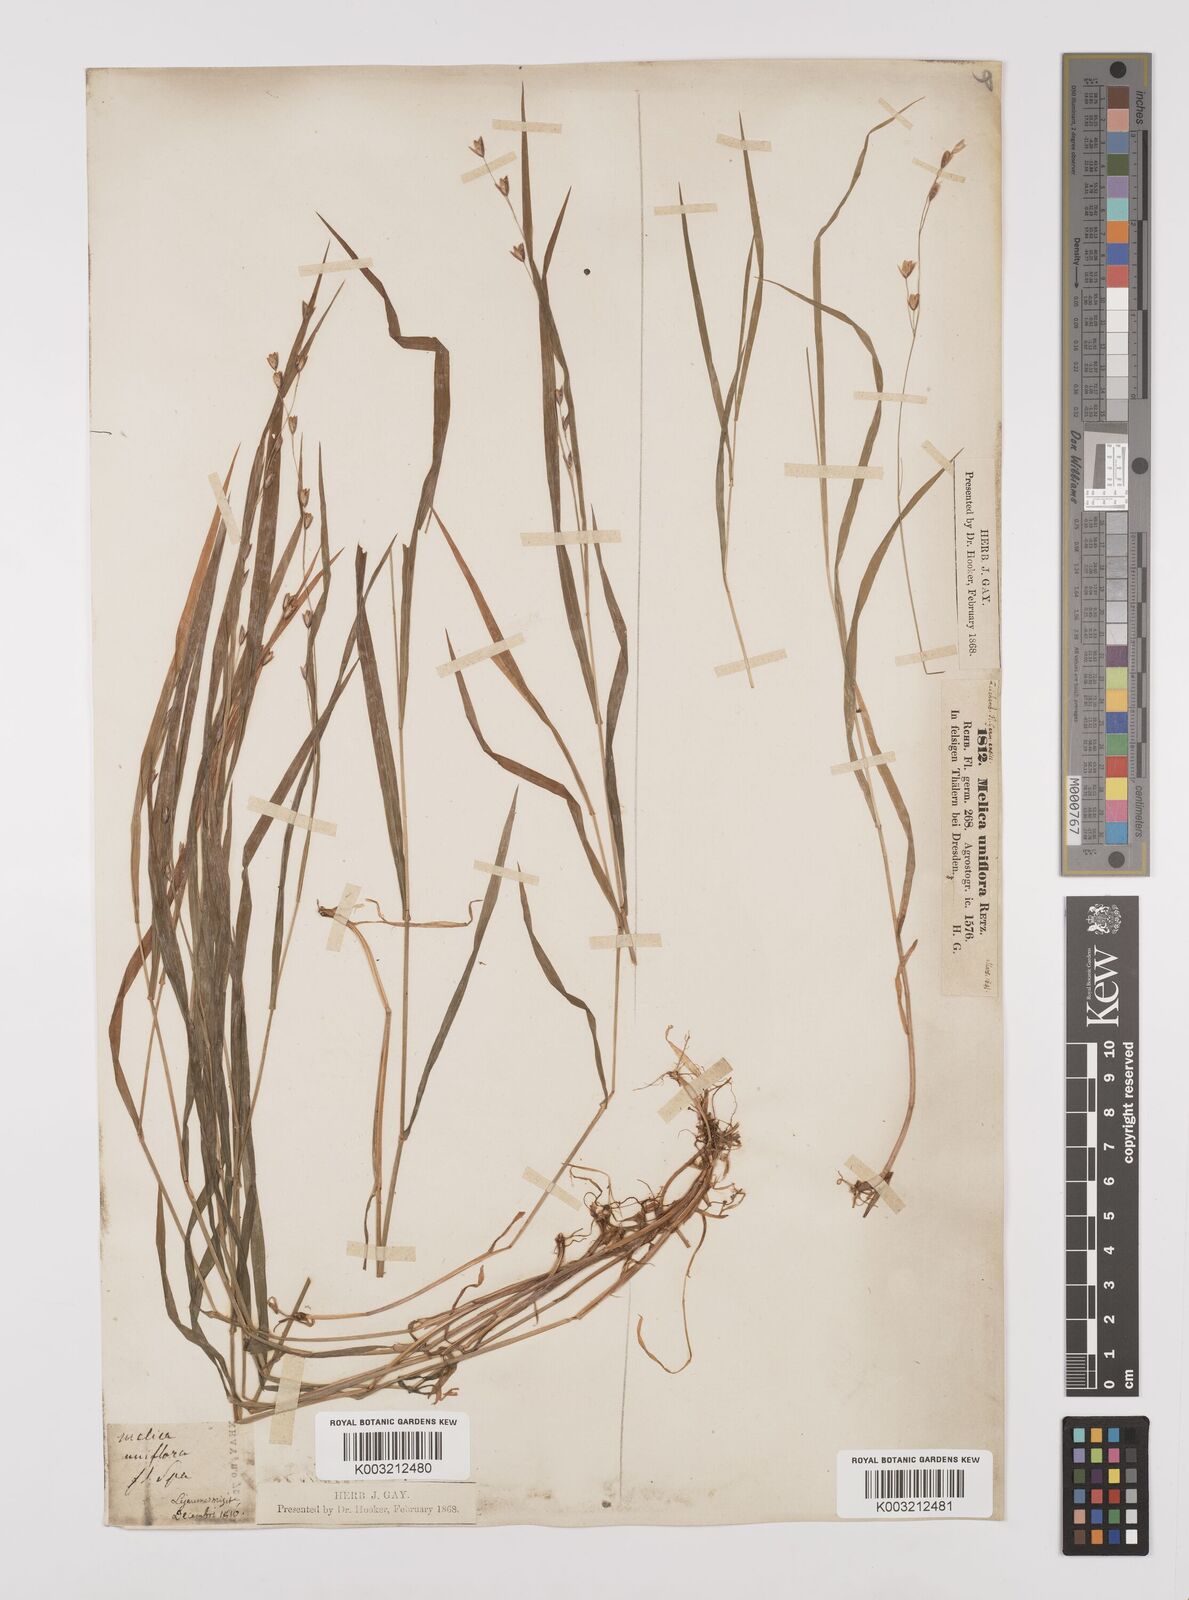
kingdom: Plantae
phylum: Tracheophyta
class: Liliopsida
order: Poales
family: Poaceae
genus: Melica
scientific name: Melica uniflora
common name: Wood melick
